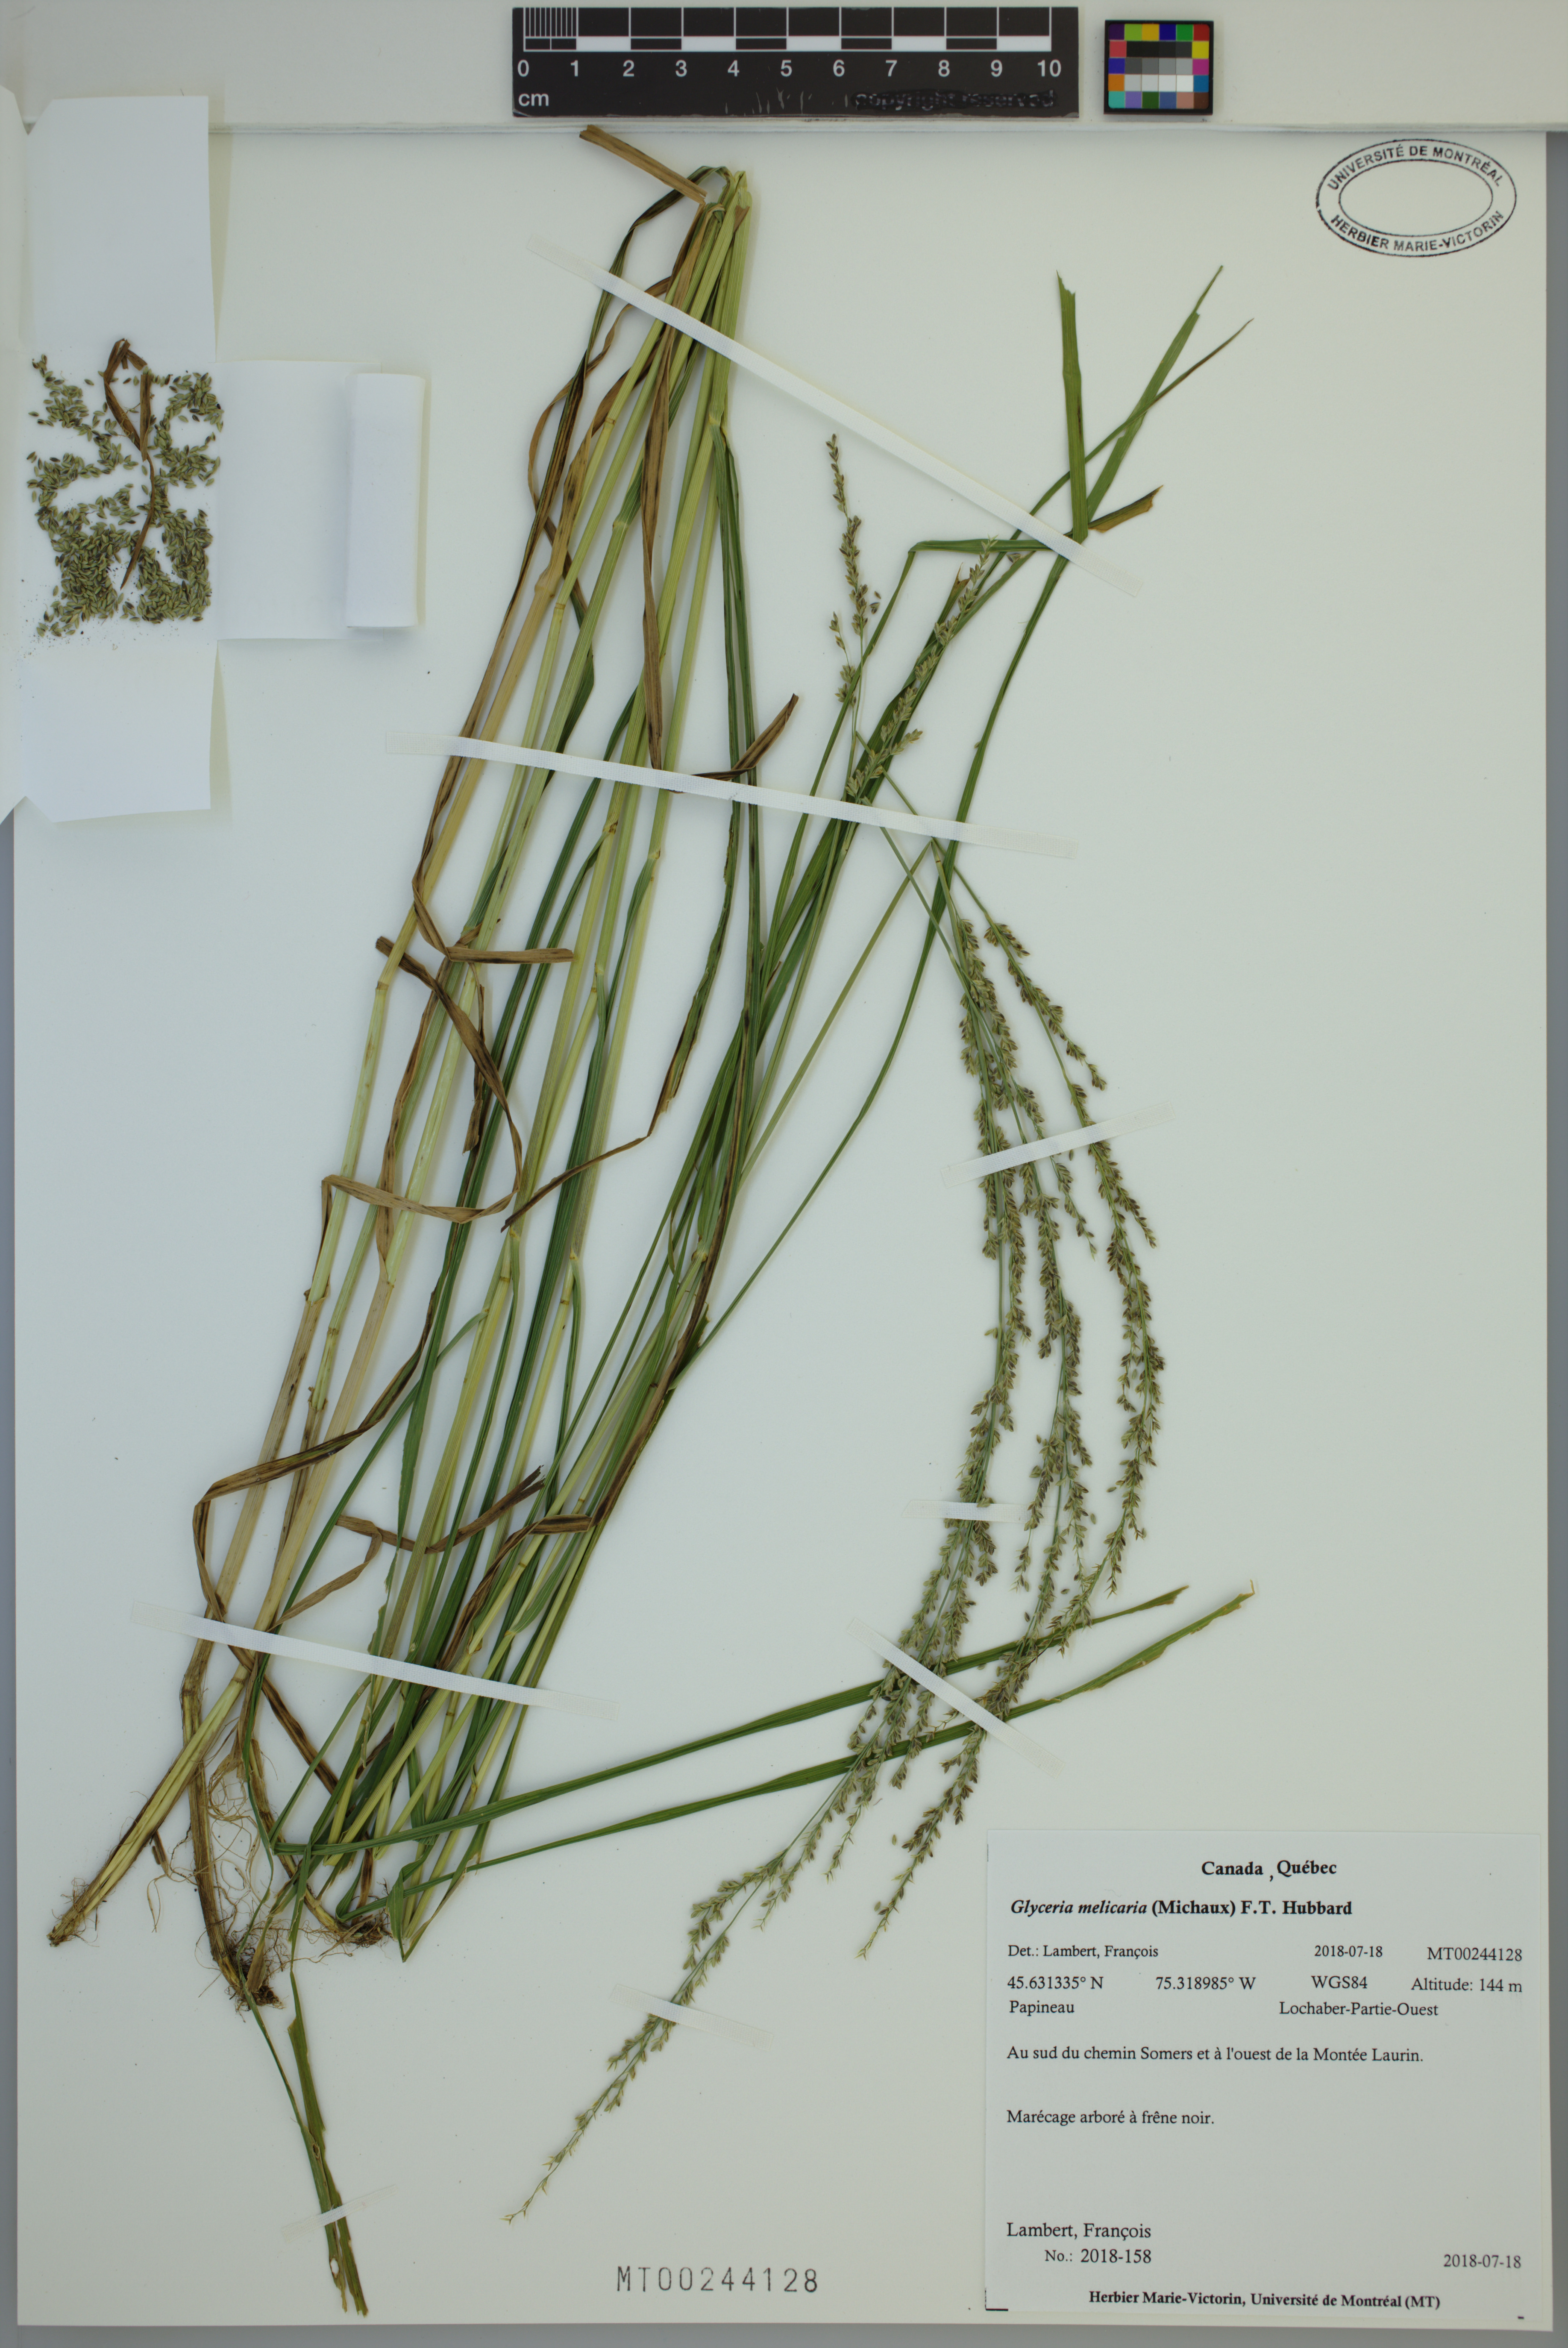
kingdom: Plantae
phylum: Tracheophyta
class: Liliopsida
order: Poales
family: Poaceae
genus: Glyceria
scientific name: Glyceria melicaria
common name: Long mannagrass
